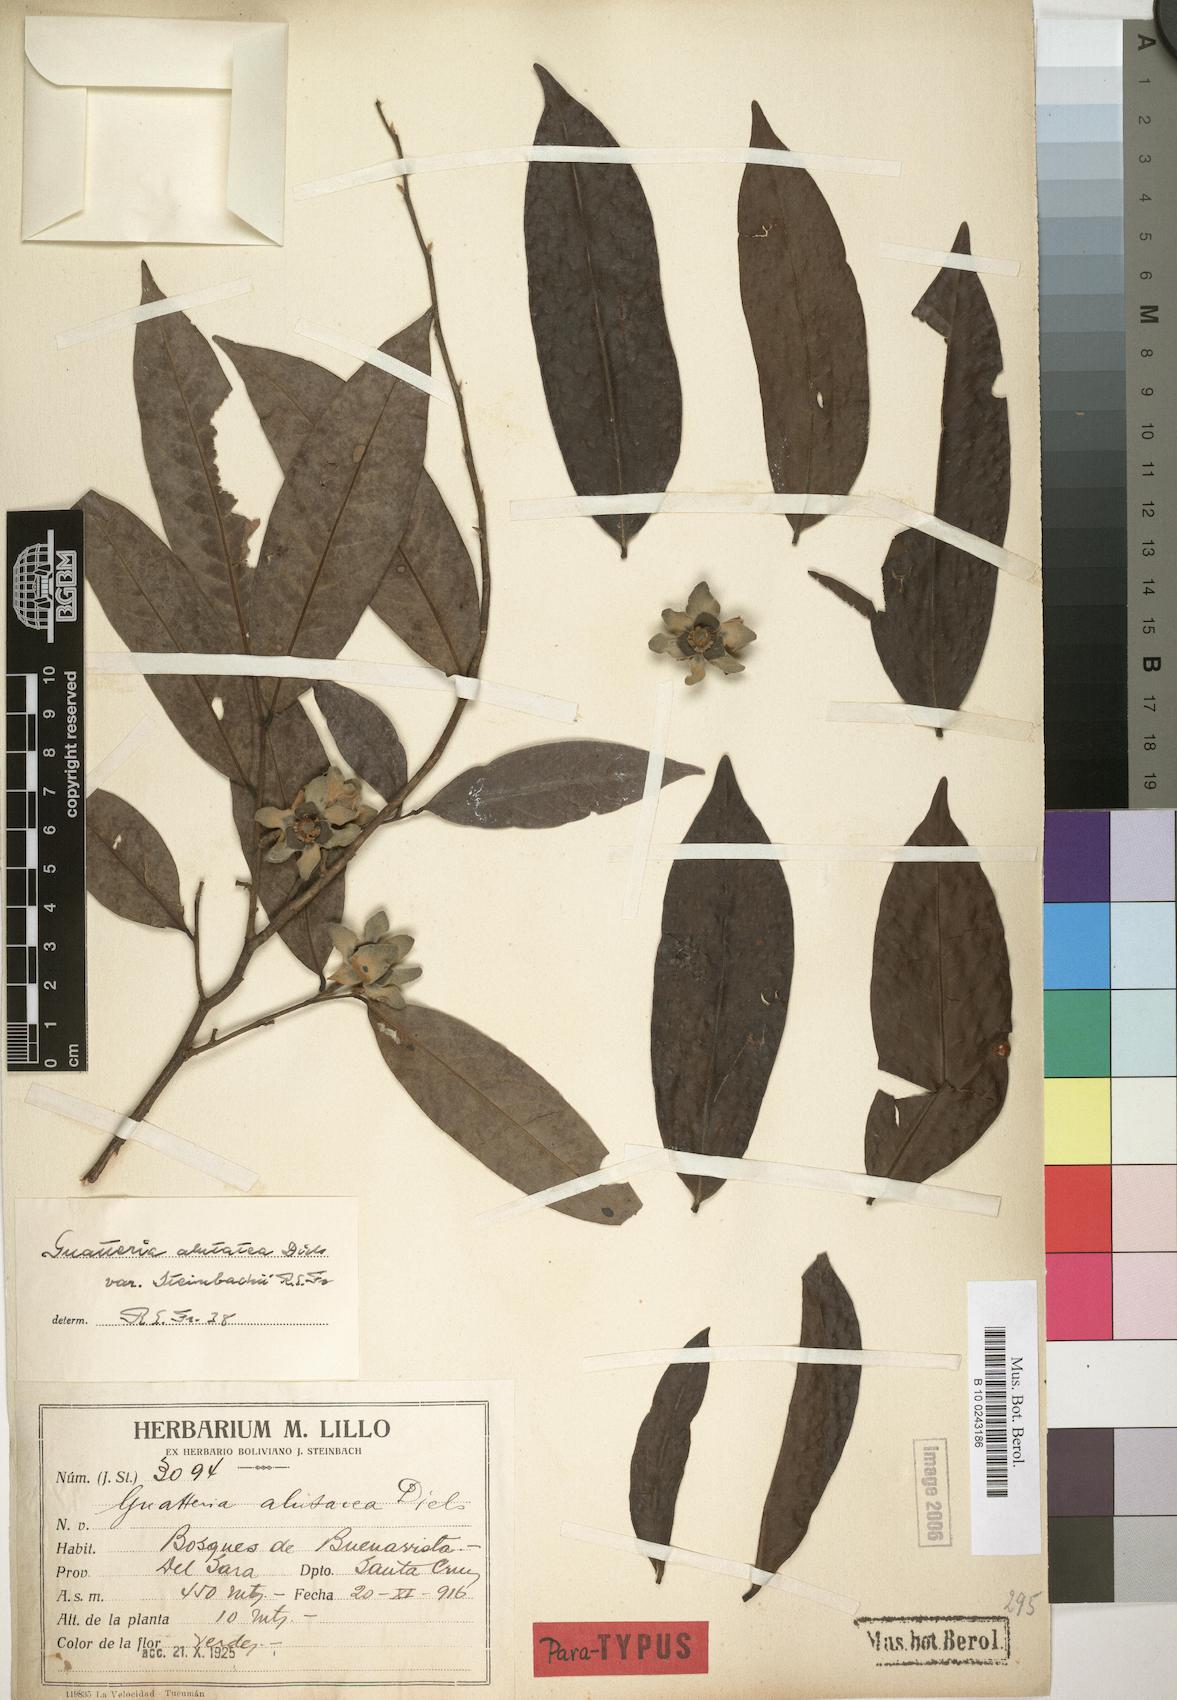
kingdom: Plantae
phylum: Tracheophyta
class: Magnoliopsida
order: Magnoliales
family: Annonaceae
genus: Guatteria
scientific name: Guatteria alutacea
